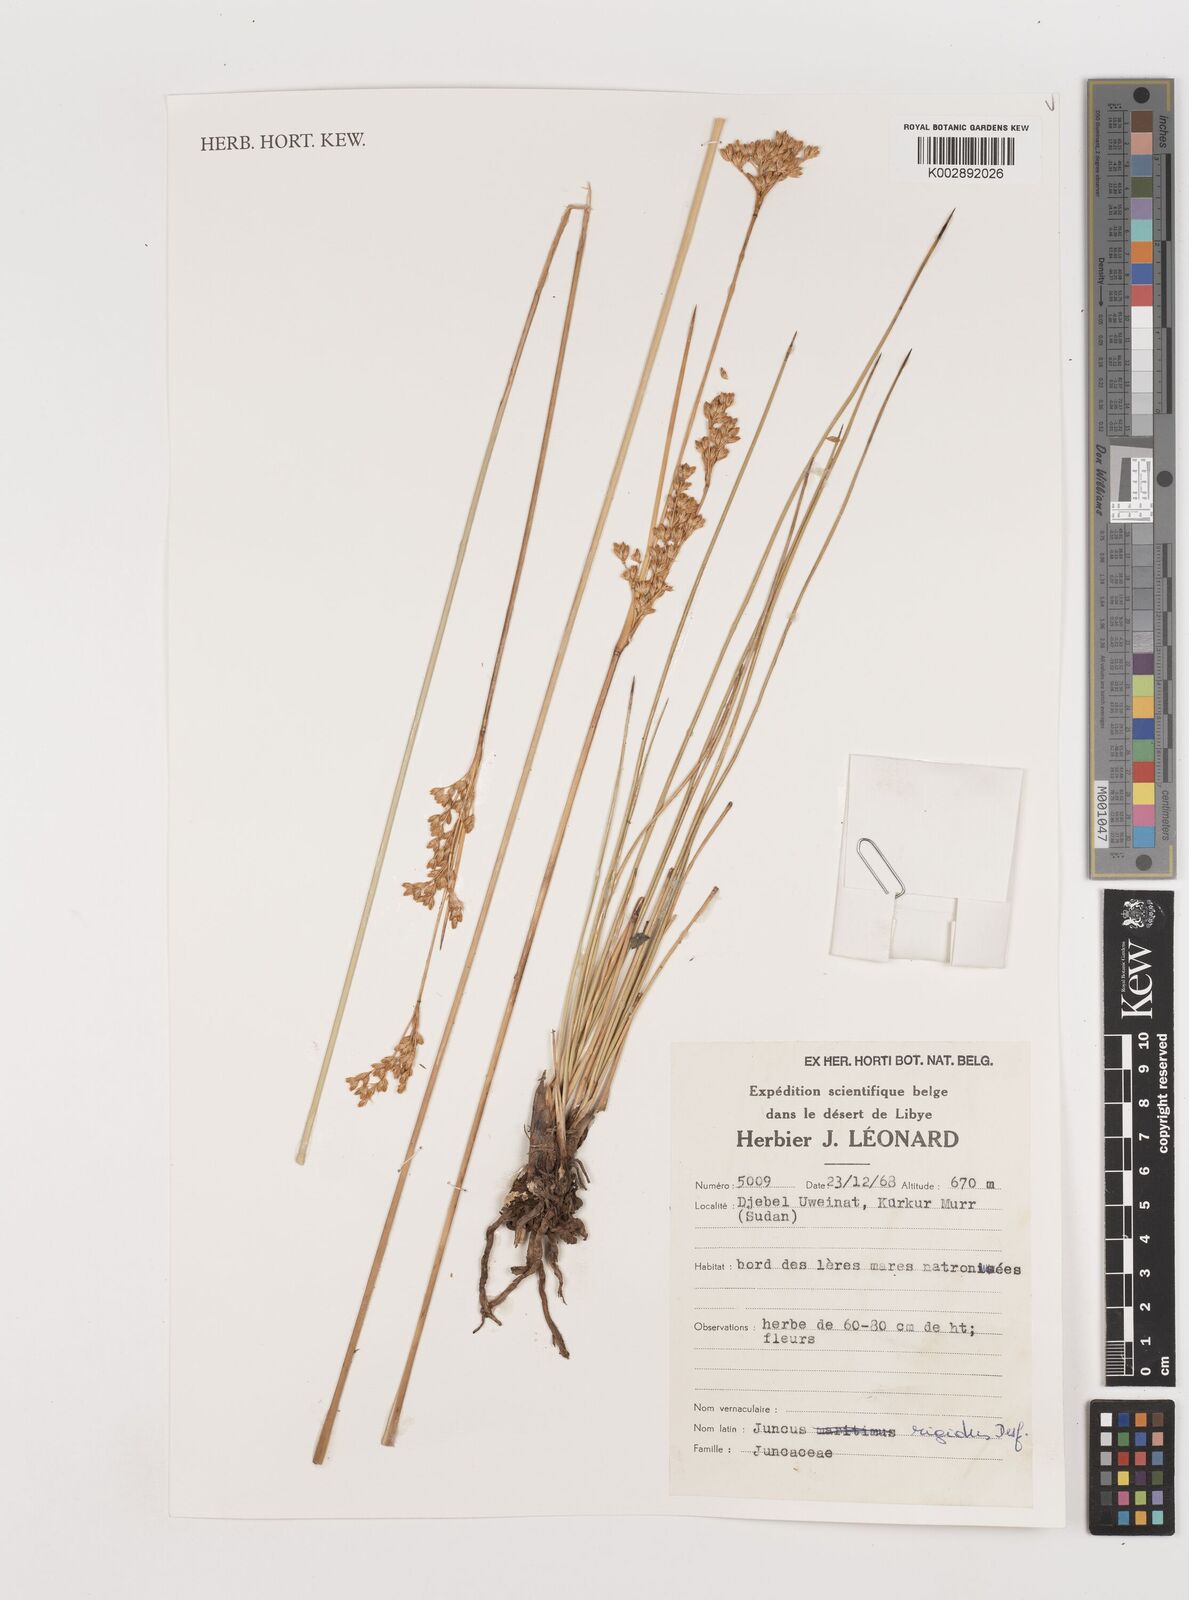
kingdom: Plantae
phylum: Tracheophyta
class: Liliopsida
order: Poales
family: Juncaceae
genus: Juncus
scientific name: Juncus rigidus
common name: Hard sea rush
